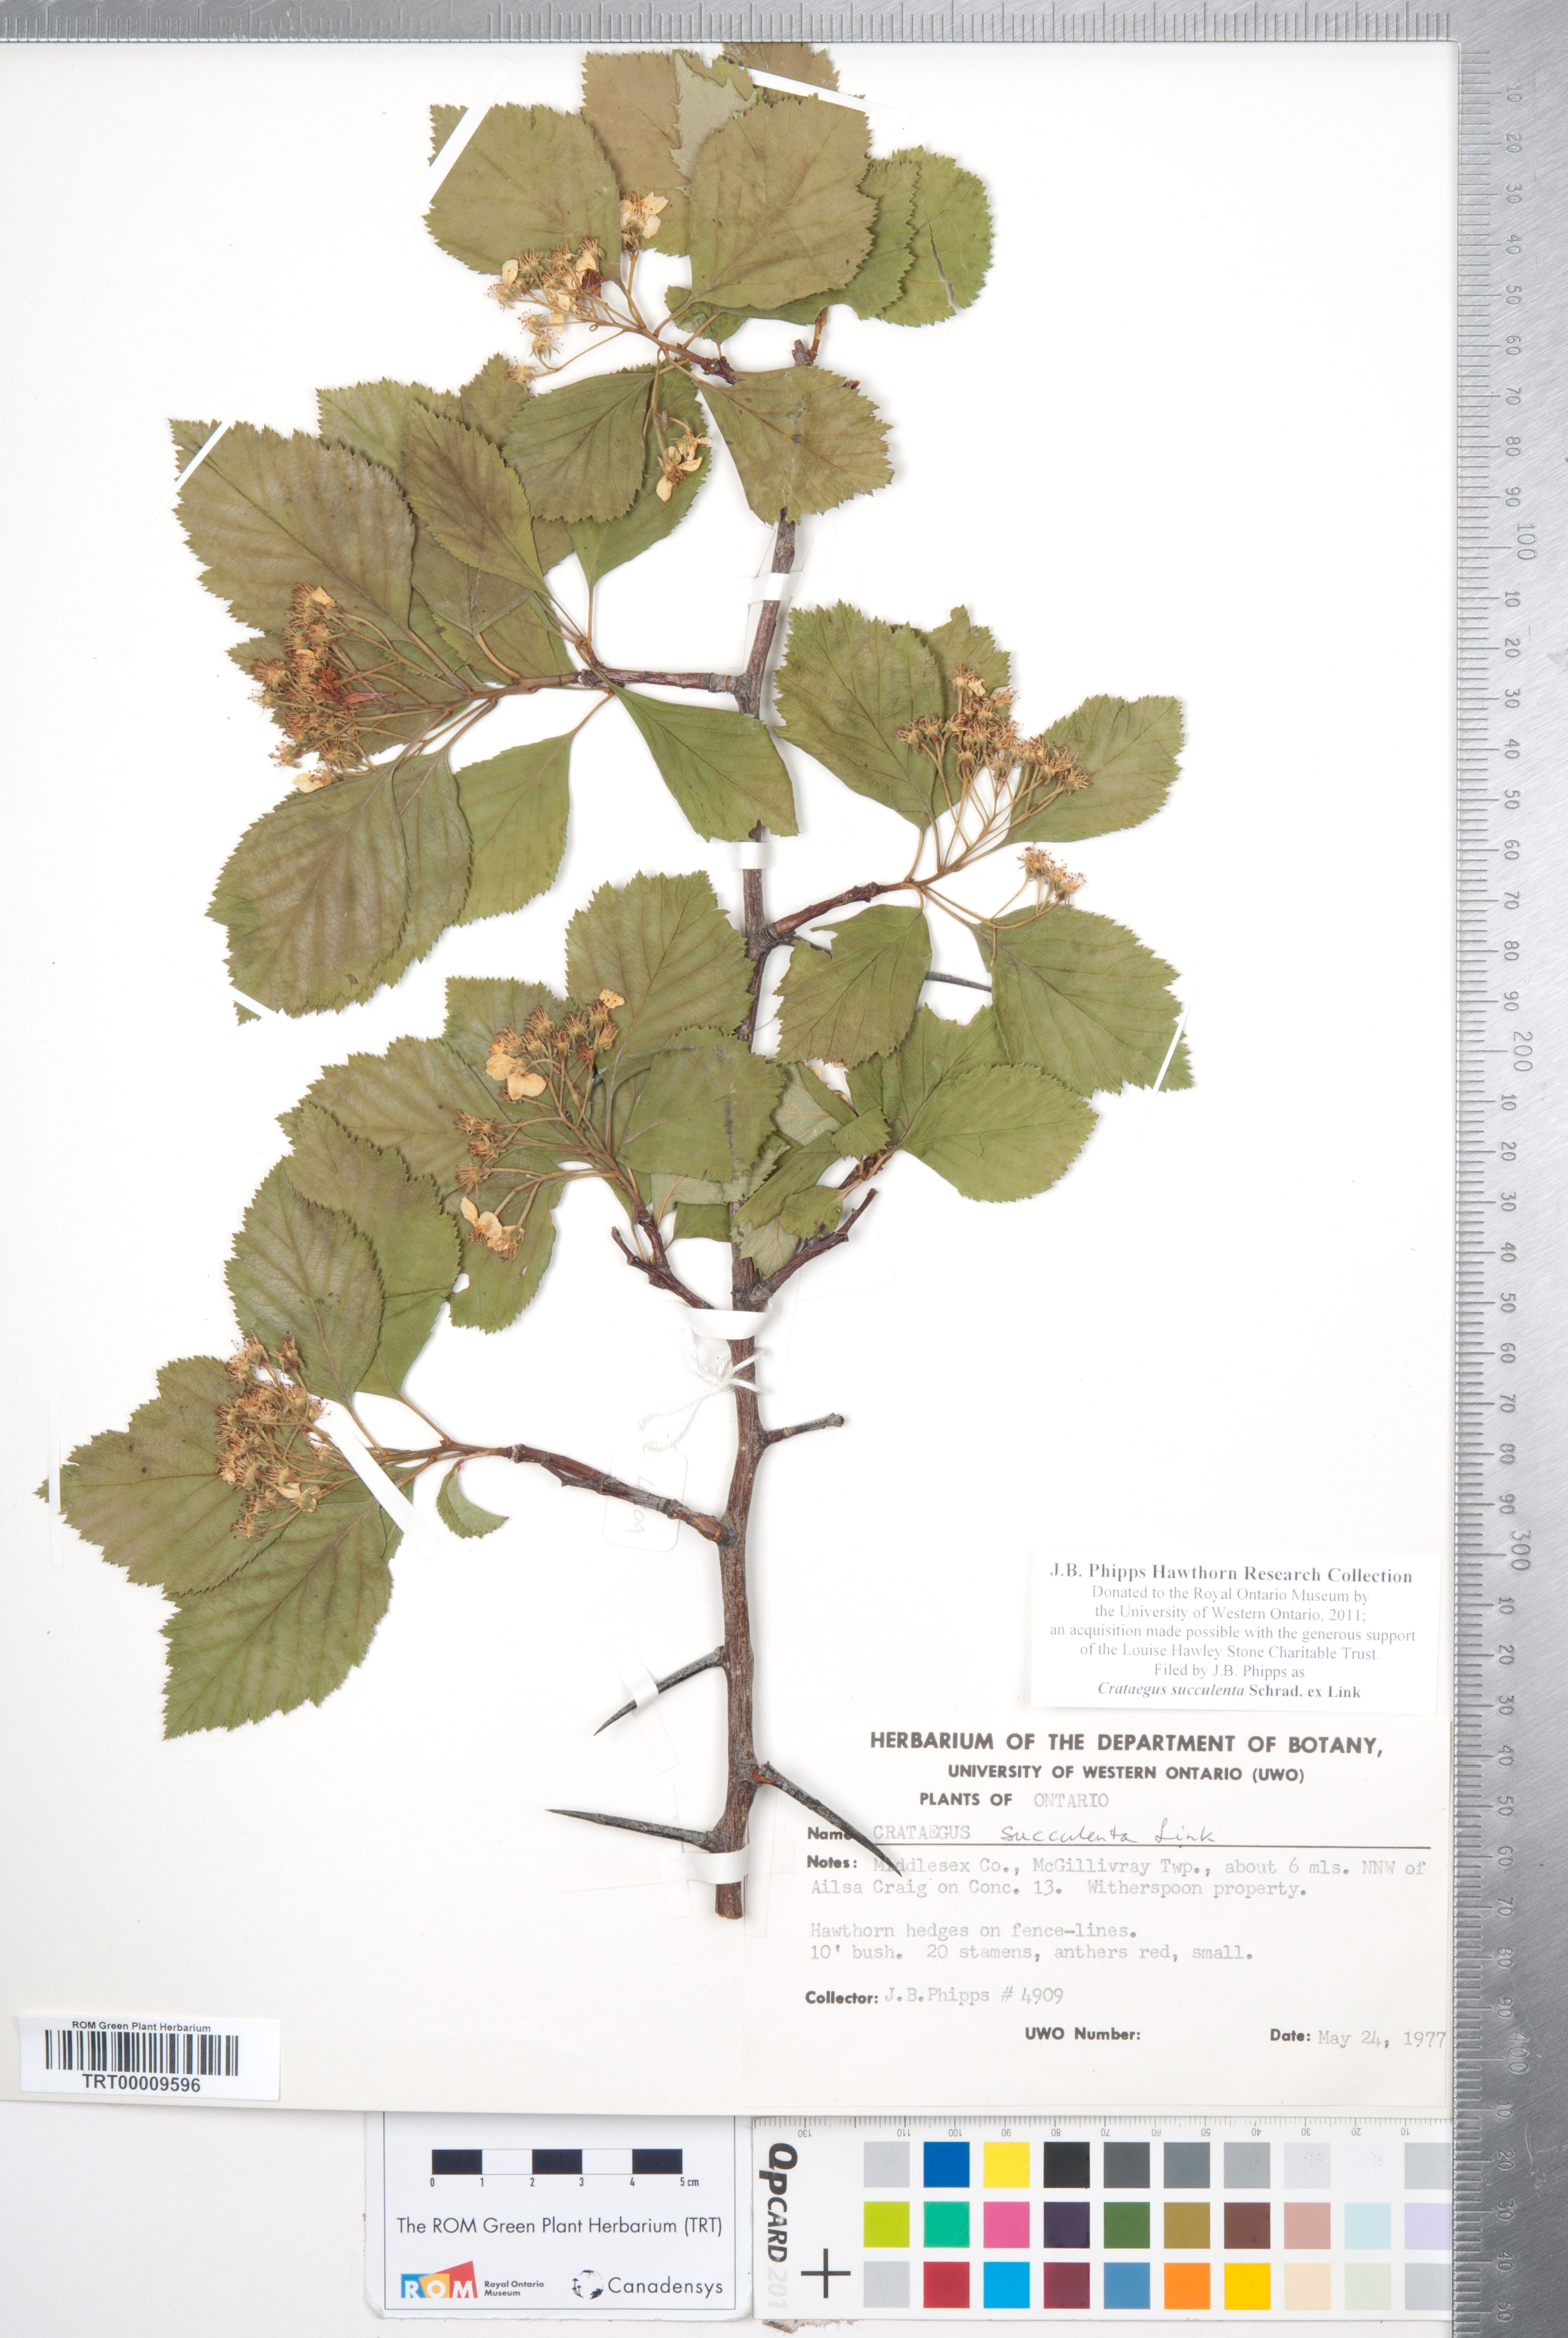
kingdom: Plantae
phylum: Tracheophyta
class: Magnoliopsida
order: Rosales
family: Rosaceae
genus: Crataegus
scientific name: Crataegus succulenta
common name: Fleshy hawthorn
